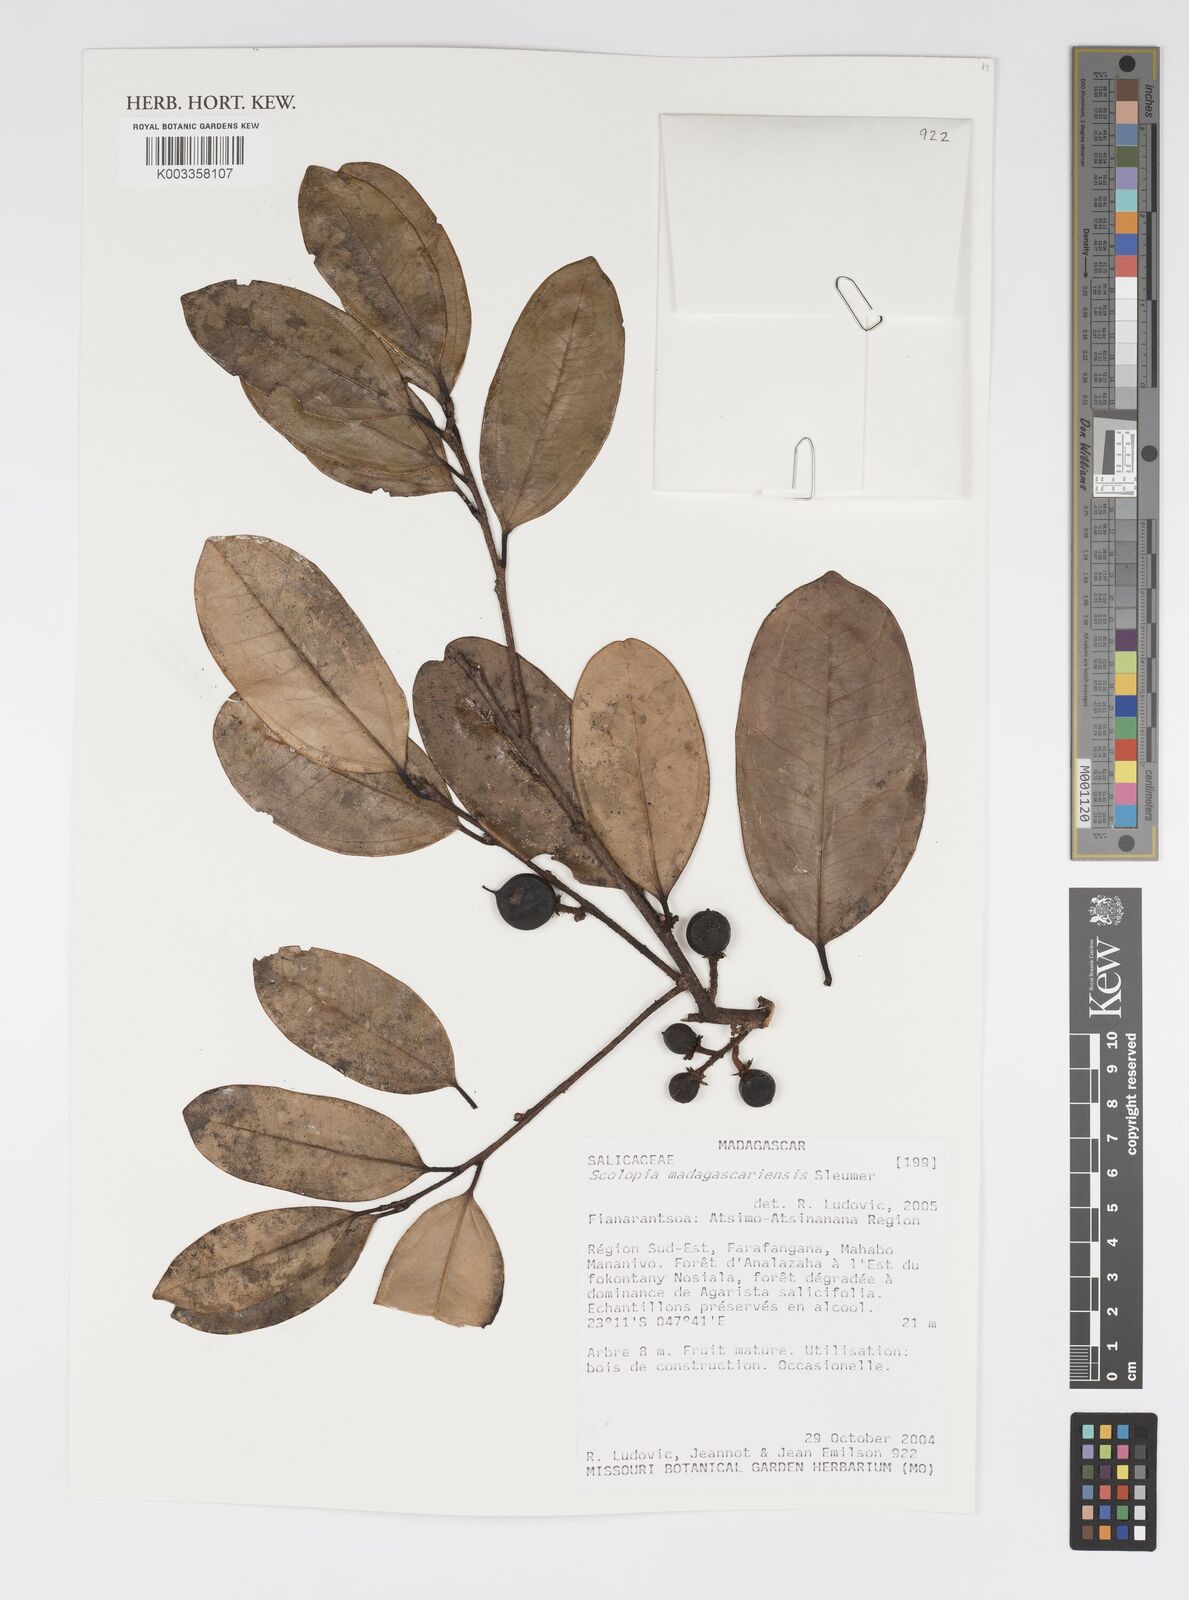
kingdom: Plantae
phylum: Tracheophyta
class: Magnoliopsida
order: Malpighiales
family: Salicaceae
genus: Scolopia
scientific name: Scolopia madagascariensis
